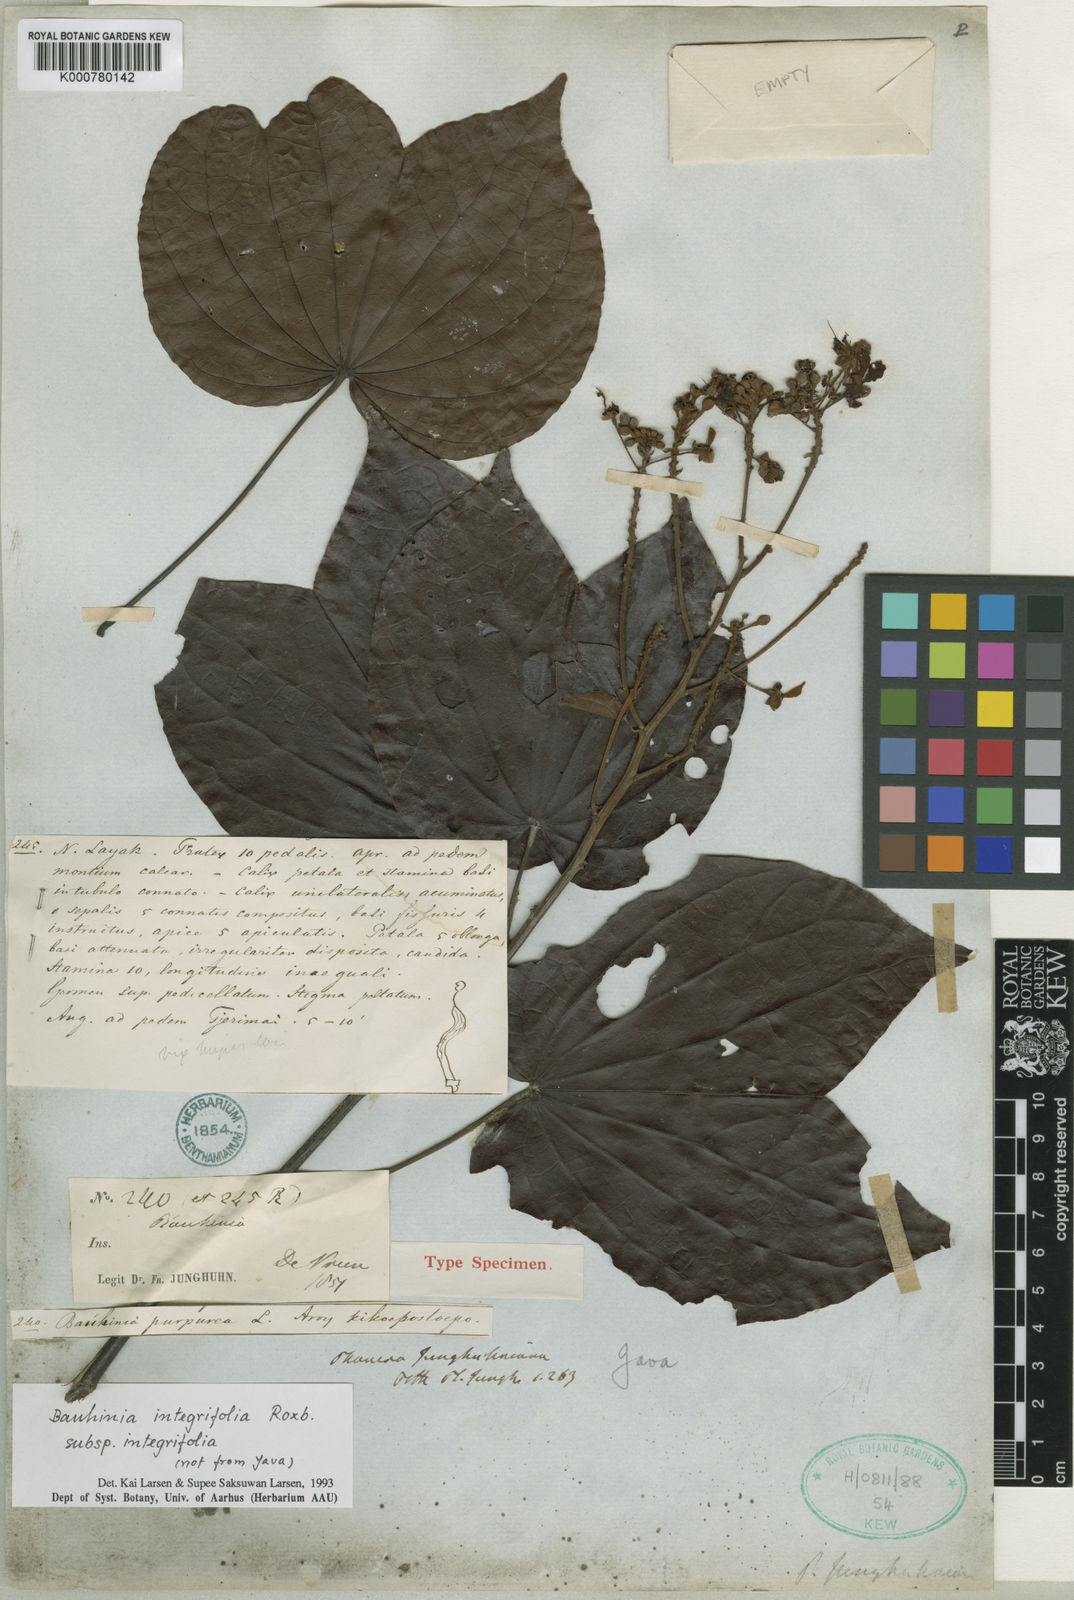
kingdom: Plantae
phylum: Tracheophyta
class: Magnoliopsida
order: Fabales
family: Fabaceae
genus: Bauhinia
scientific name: Bauhinia purpurea
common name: Butterfly-tree
